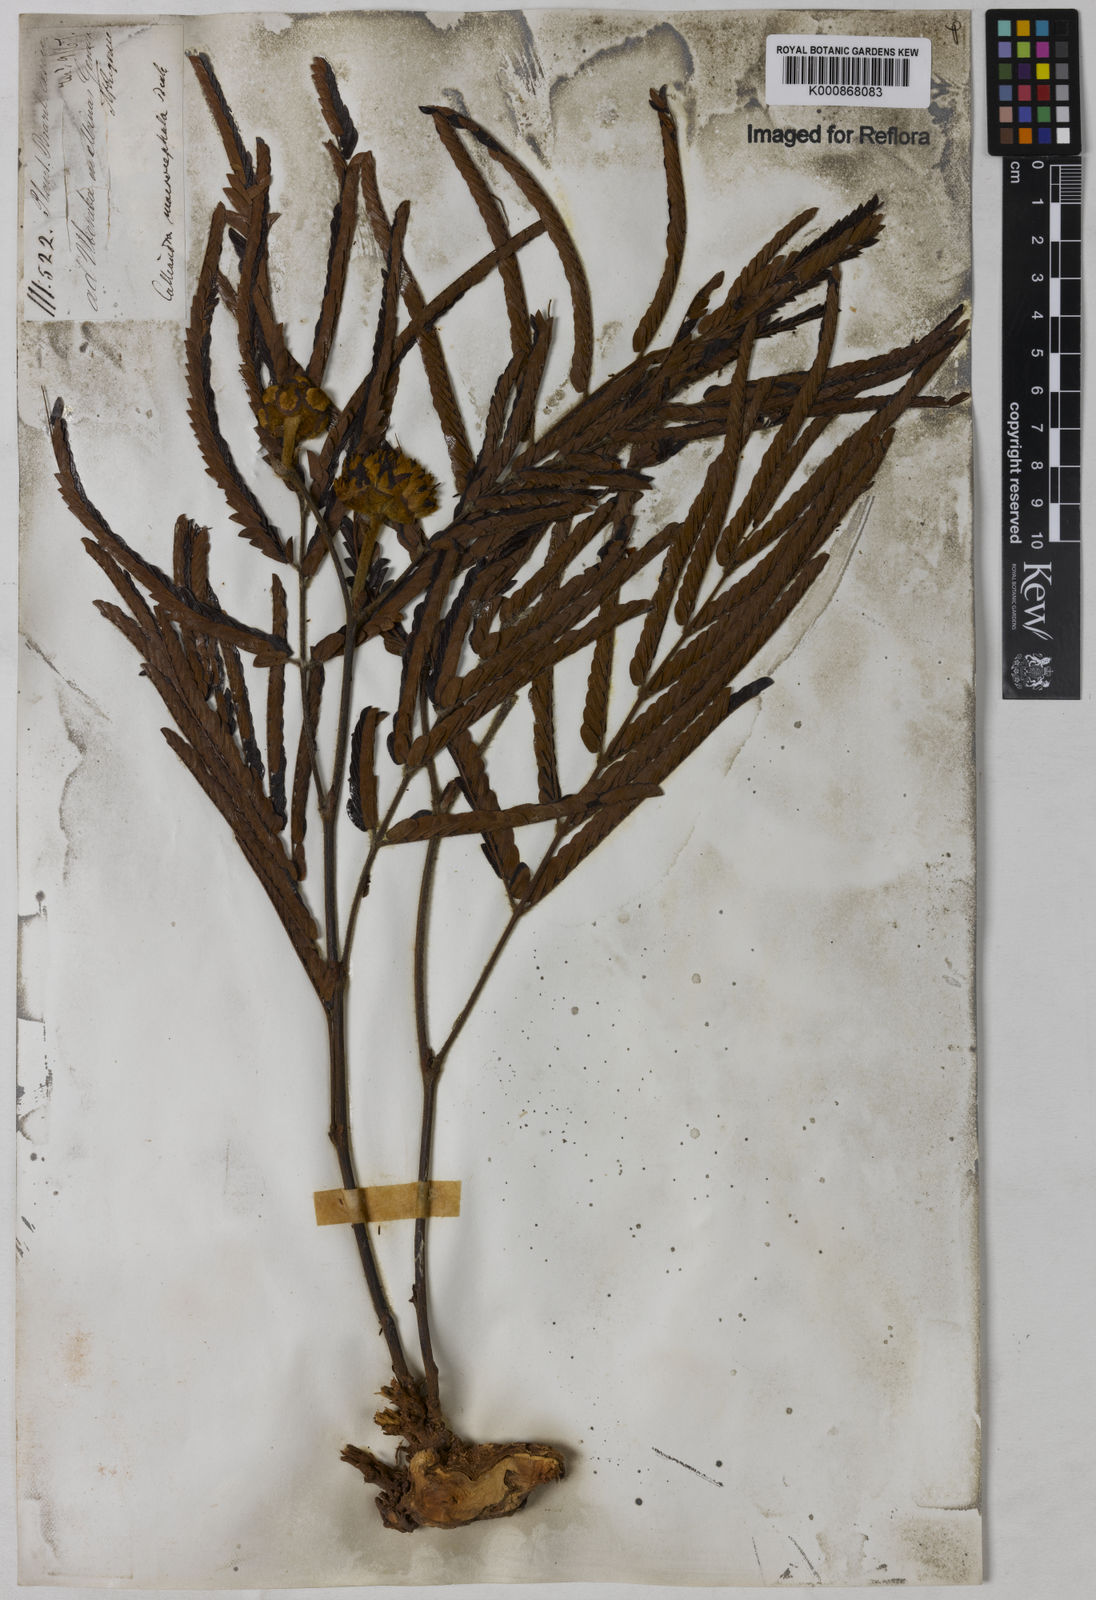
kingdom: Plantae
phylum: Tracheophyta
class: Magnoliopsida
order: Fabales
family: Fabaceae
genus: Calliandra
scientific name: Calliandra dysantha
